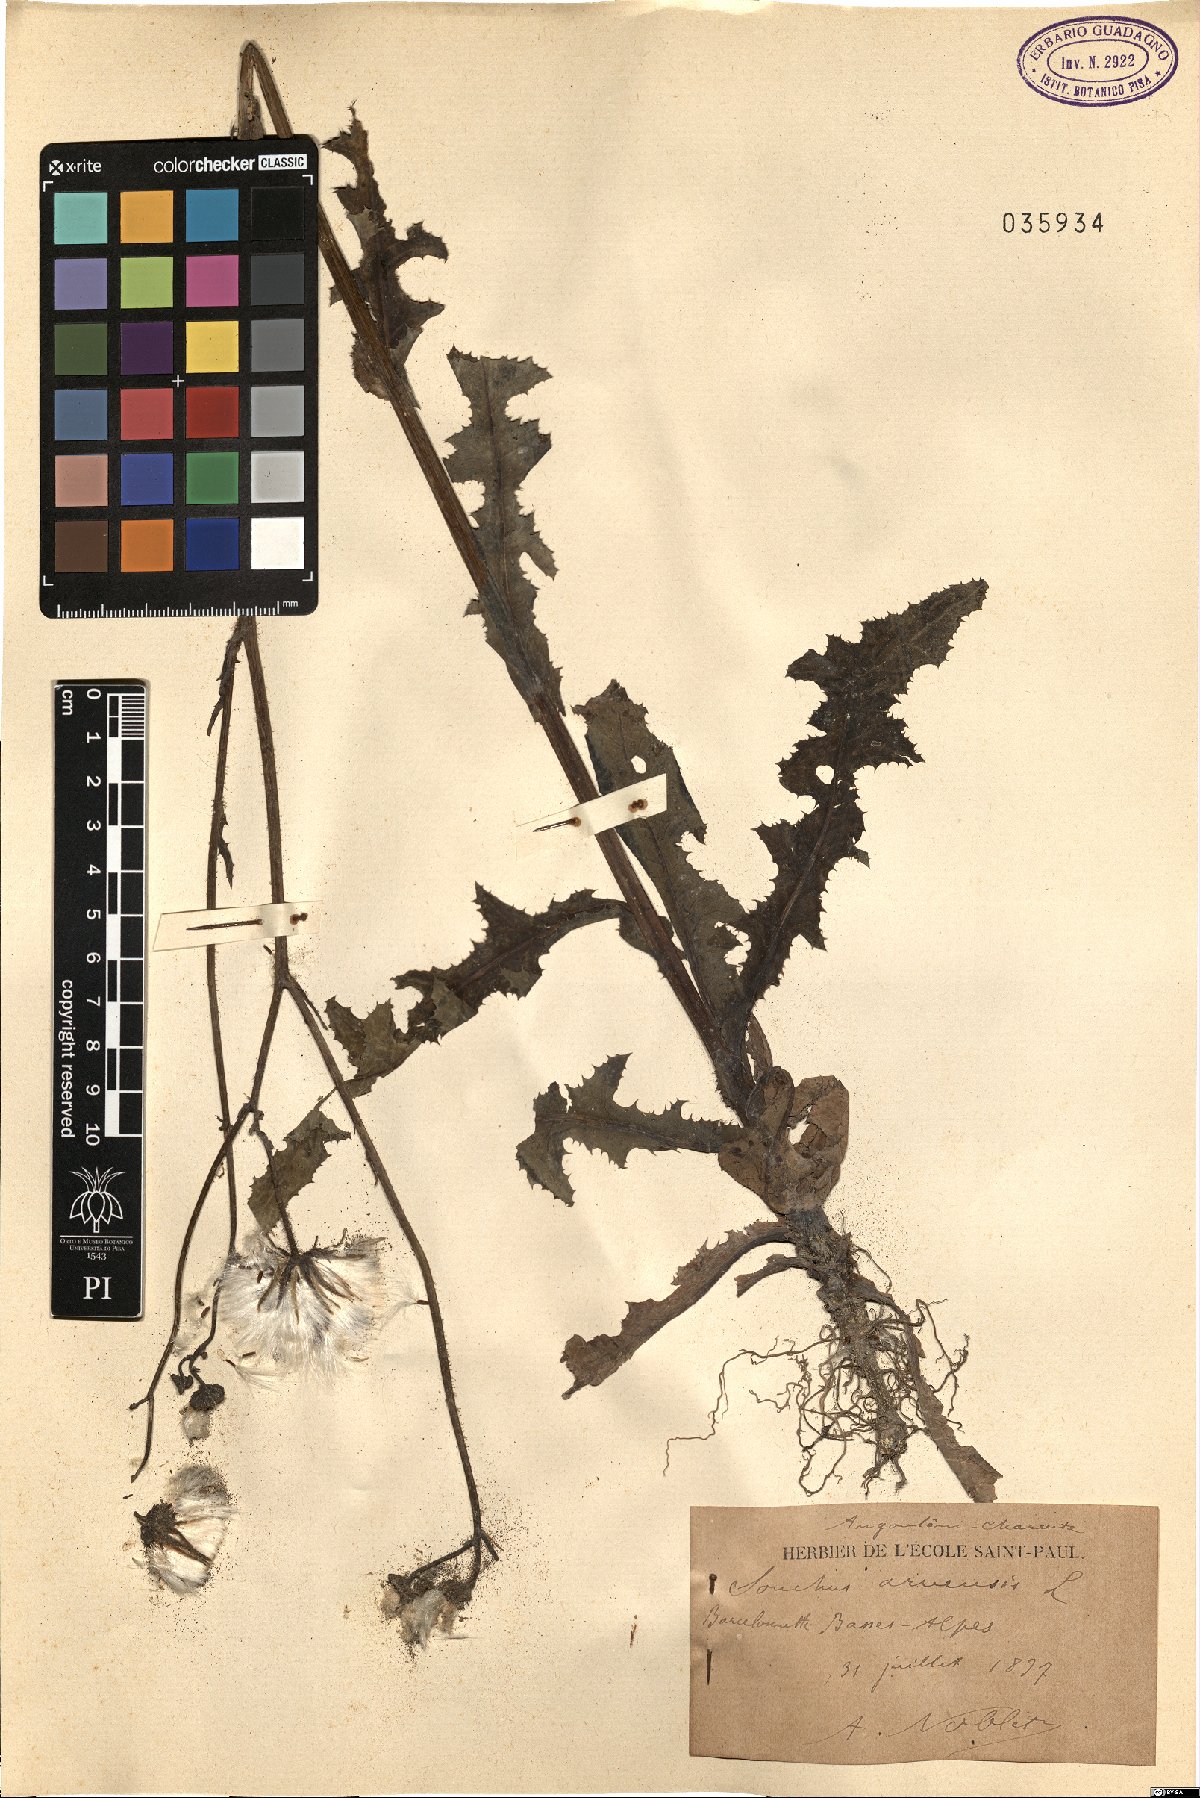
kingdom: Plantae
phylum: Tracheophyta
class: Magnoliopsida
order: Asterales
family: Asteraceae
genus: Sonchus
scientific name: Sonchus arvensis
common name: Perennial sow-thistle
